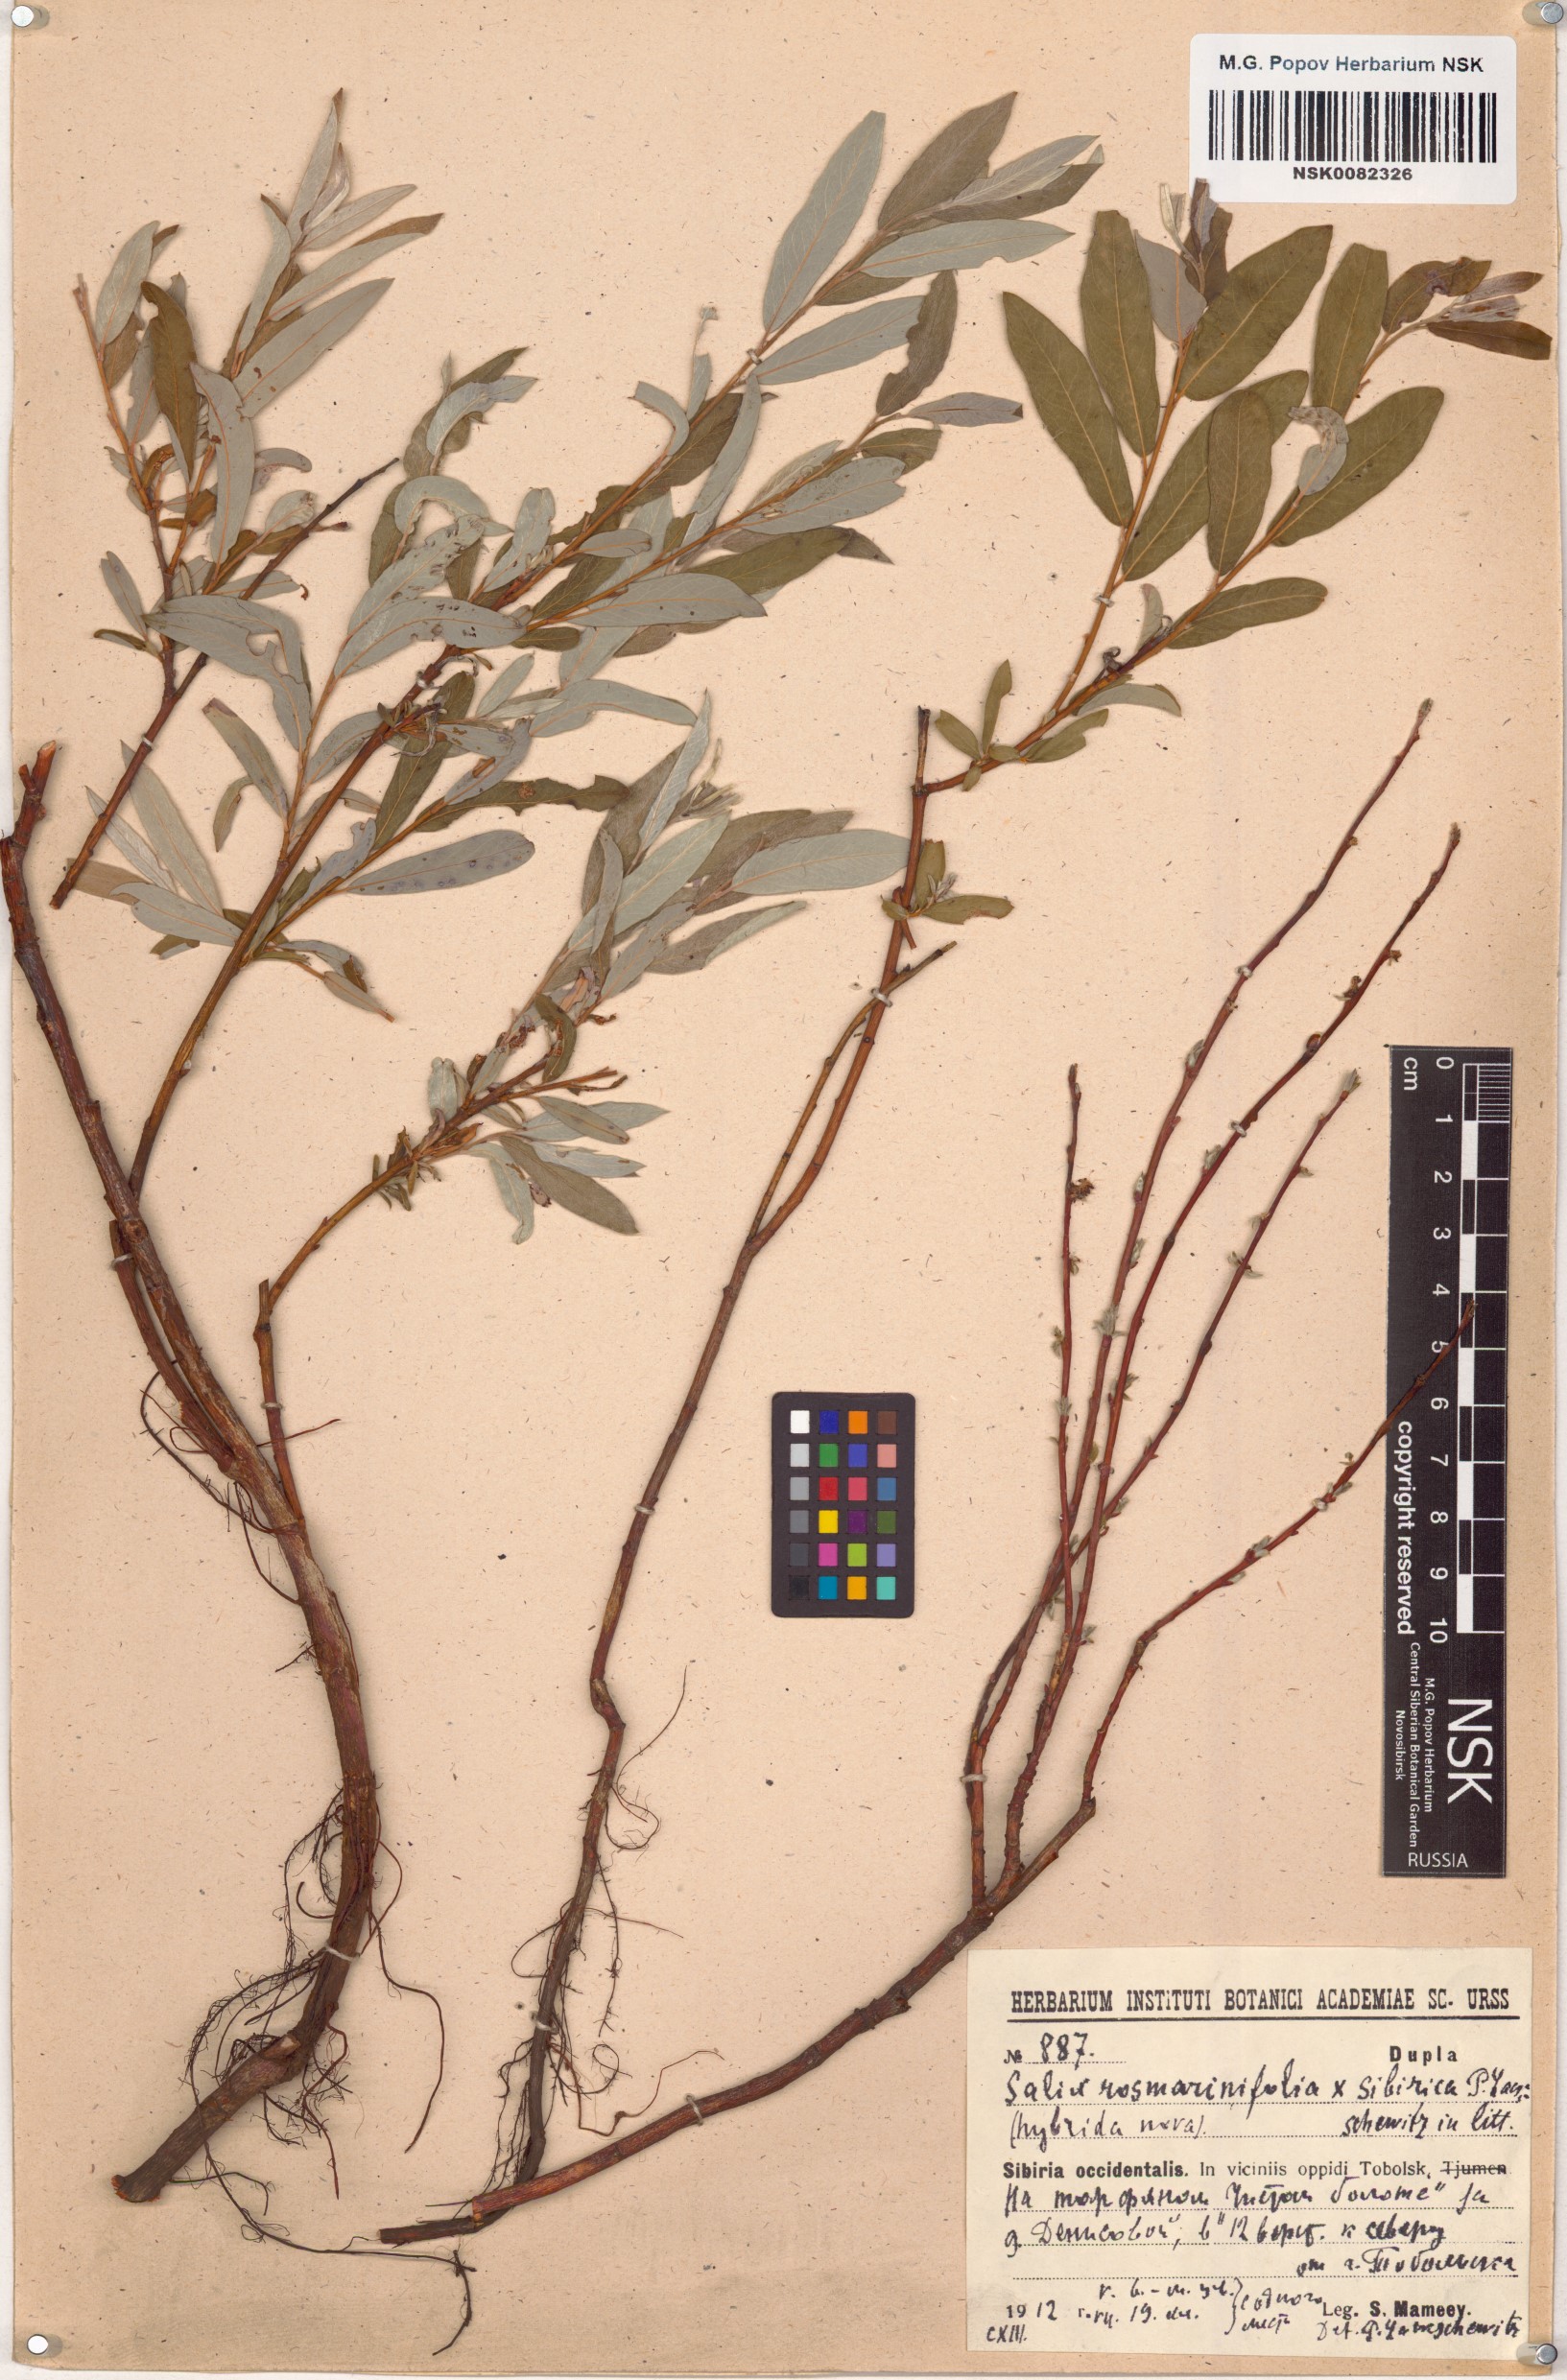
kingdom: Plantae
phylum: Tracheophyta
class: Magnoliopsida
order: Malpighiales
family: Salicaceae
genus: Salix
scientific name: Salix rosmarinifolia
